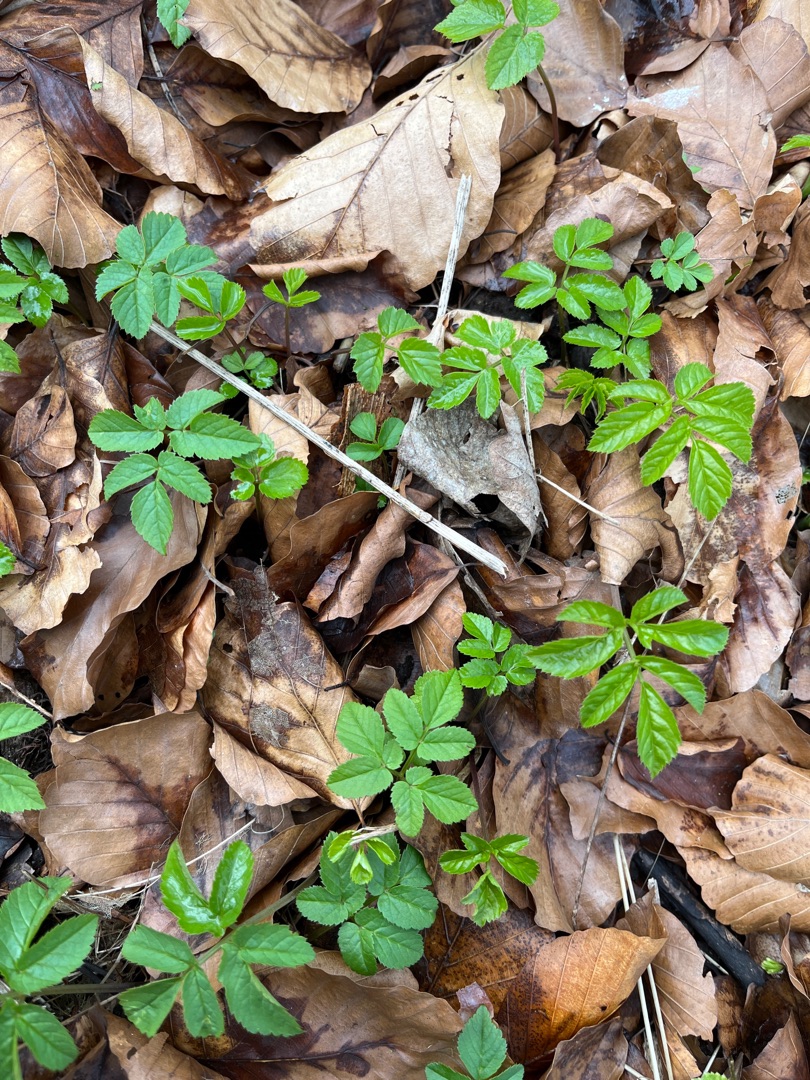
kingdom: Plantae
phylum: Tracheophyta
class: Magnoliopsida
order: Apiales
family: Apiaceae
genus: Aegopodium
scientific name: Aegopodium podagraria
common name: Skvalderkål
